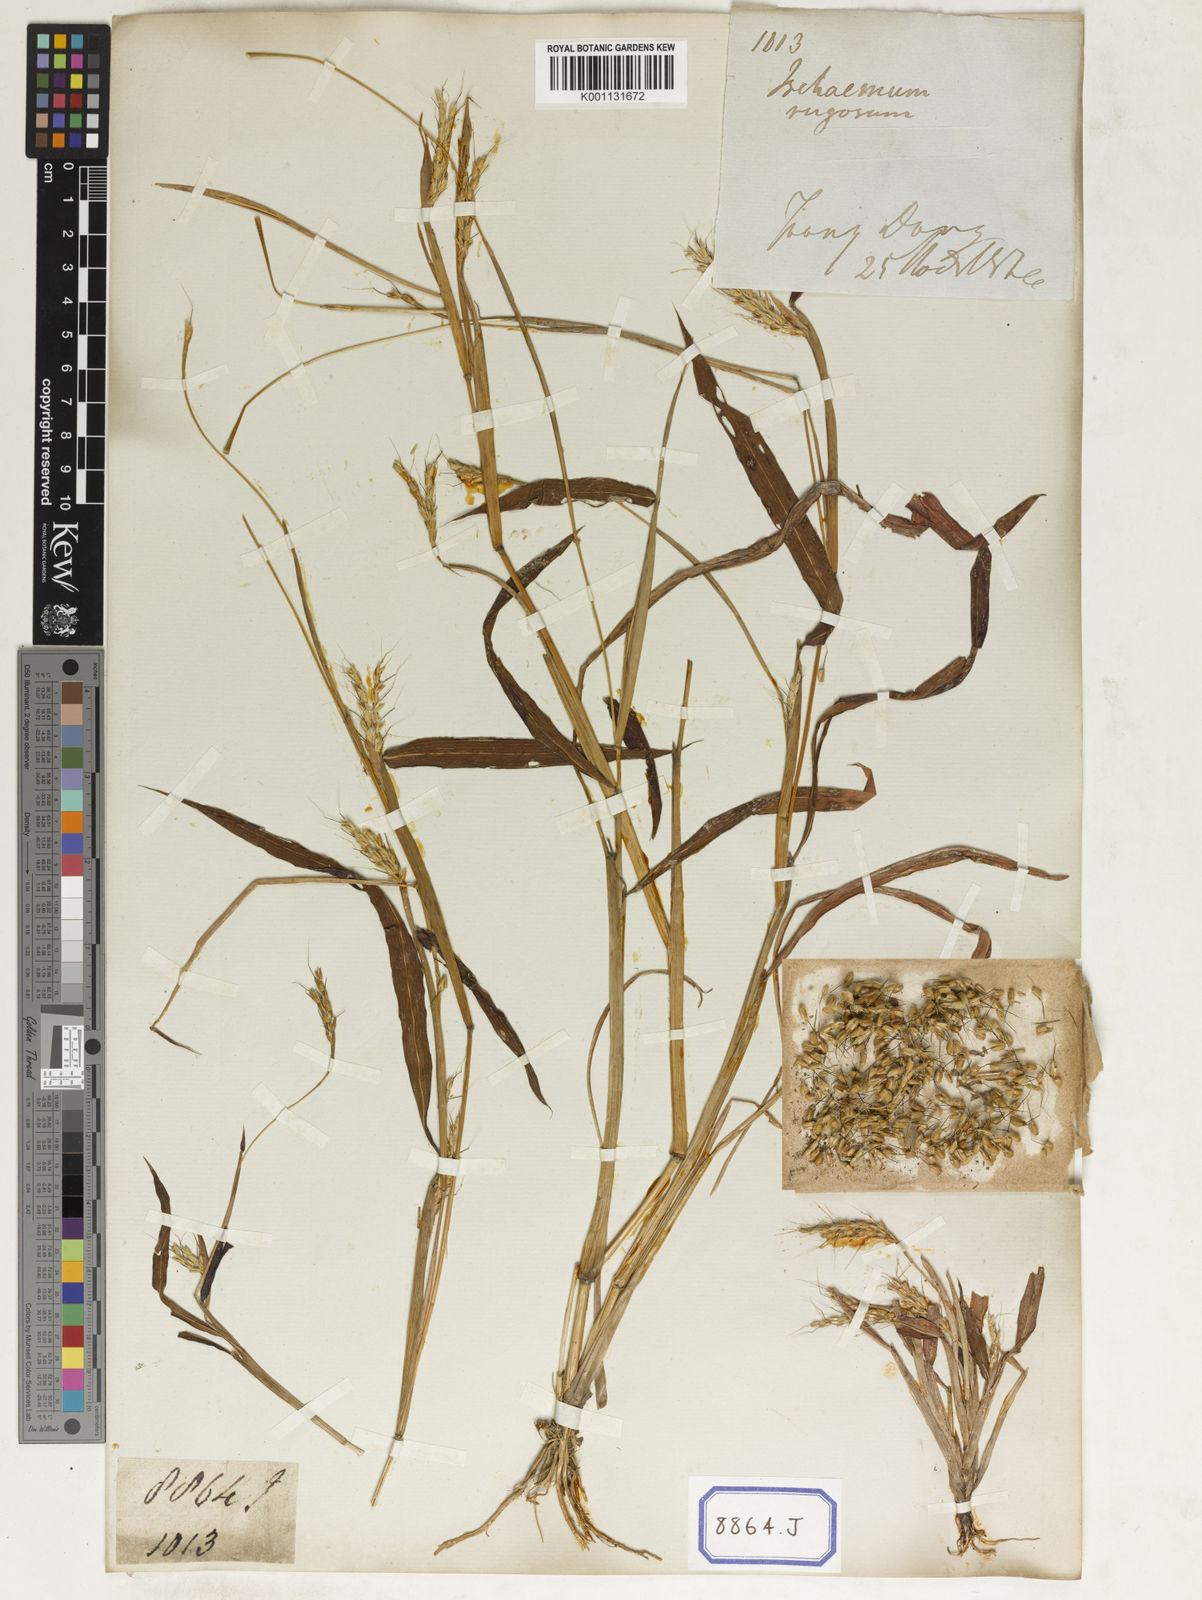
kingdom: Plantae
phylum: Tracheophyta
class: Liliopsida
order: Poales
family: Poaceae
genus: Ischaemum
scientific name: Ischaemum rugosum
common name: Saramatta grass
